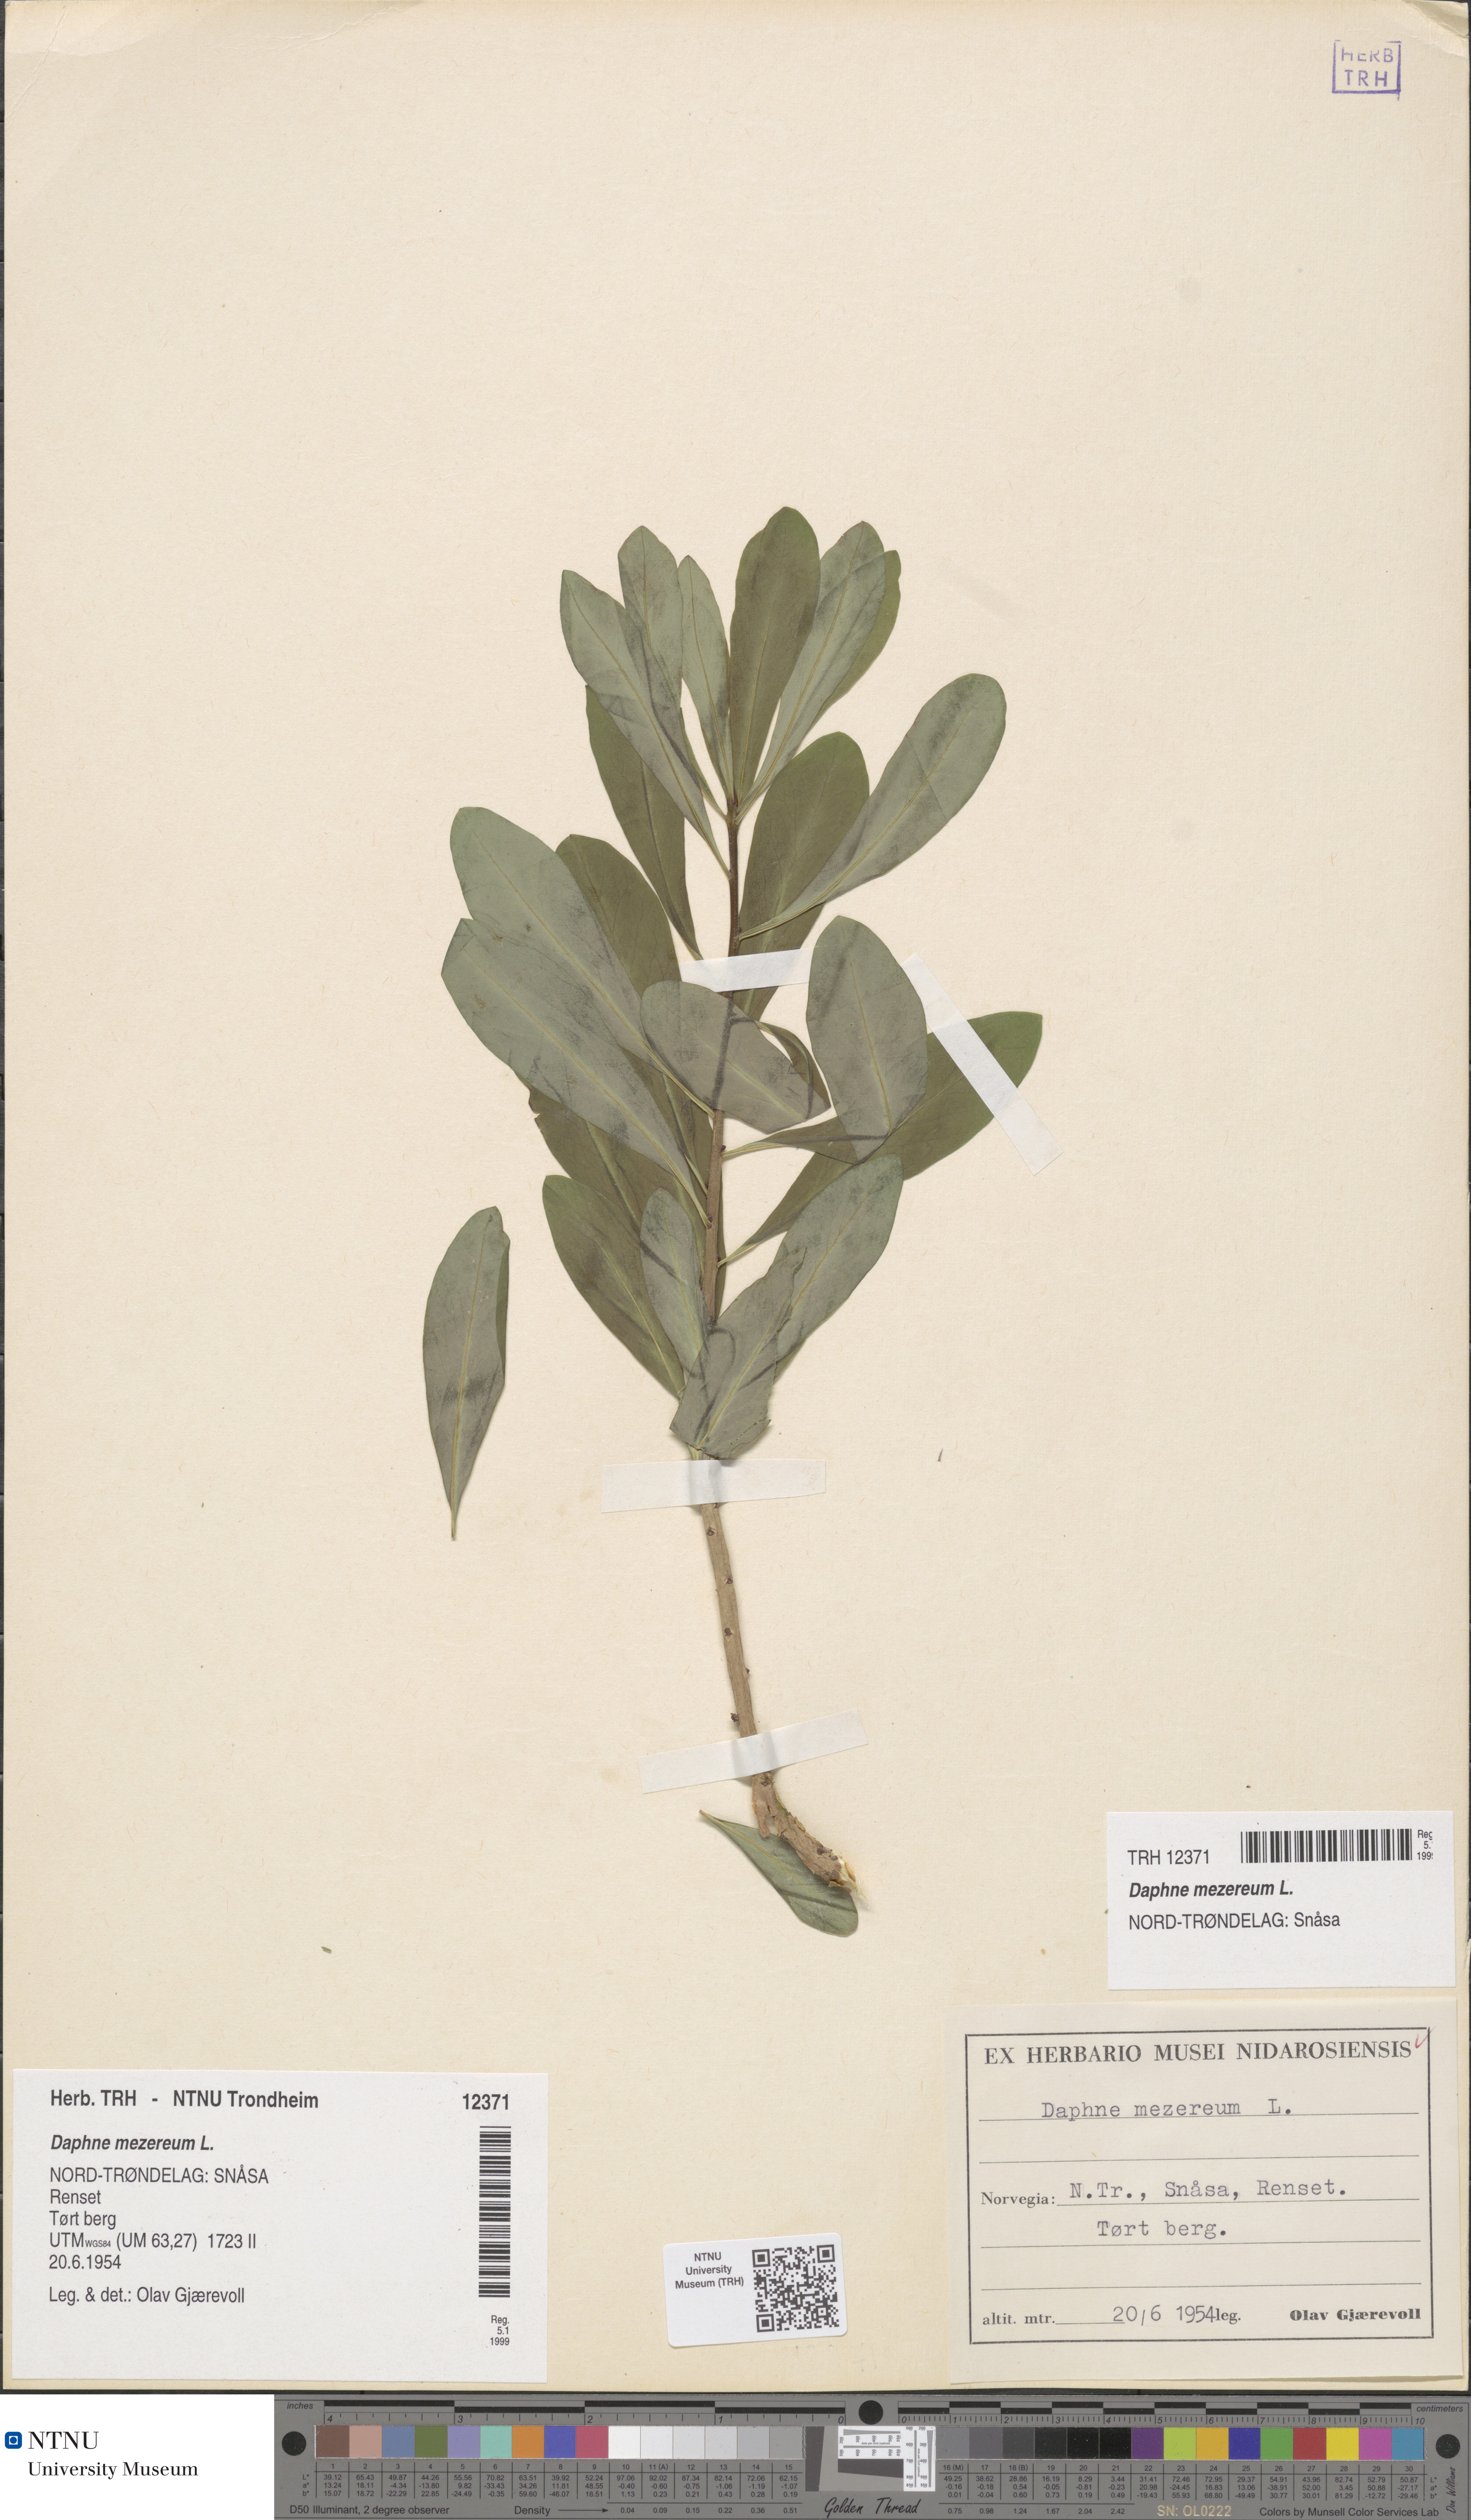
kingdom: Plantae
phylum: Tracheophyta
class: Magnoliopsida
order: Malvales
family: Thymelaeaceae
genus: Daphne
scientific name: Daphne mezereum
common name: Mezereon
